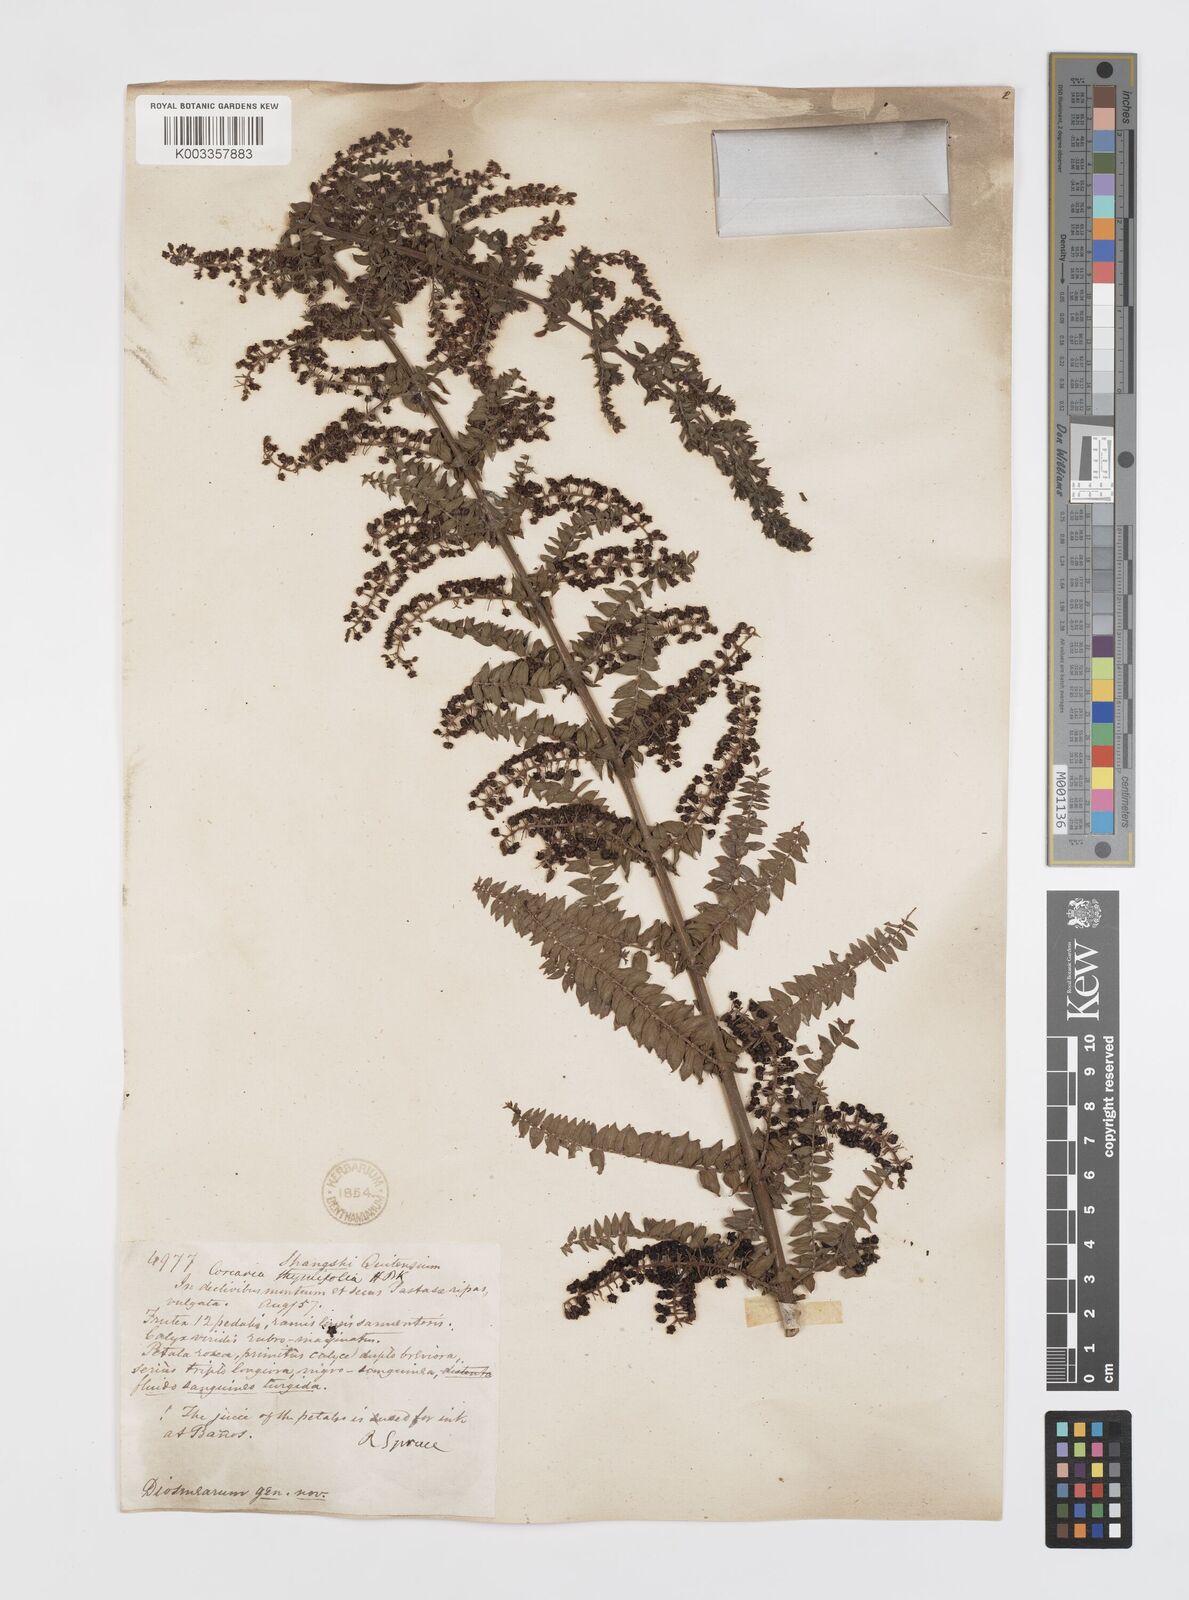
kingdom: Plantae
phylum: Tracheophyta
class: Magnoliopsida
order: Cucurbitales
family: Coriariaceae
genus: Coriaria
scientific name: Coriaria microphylla
